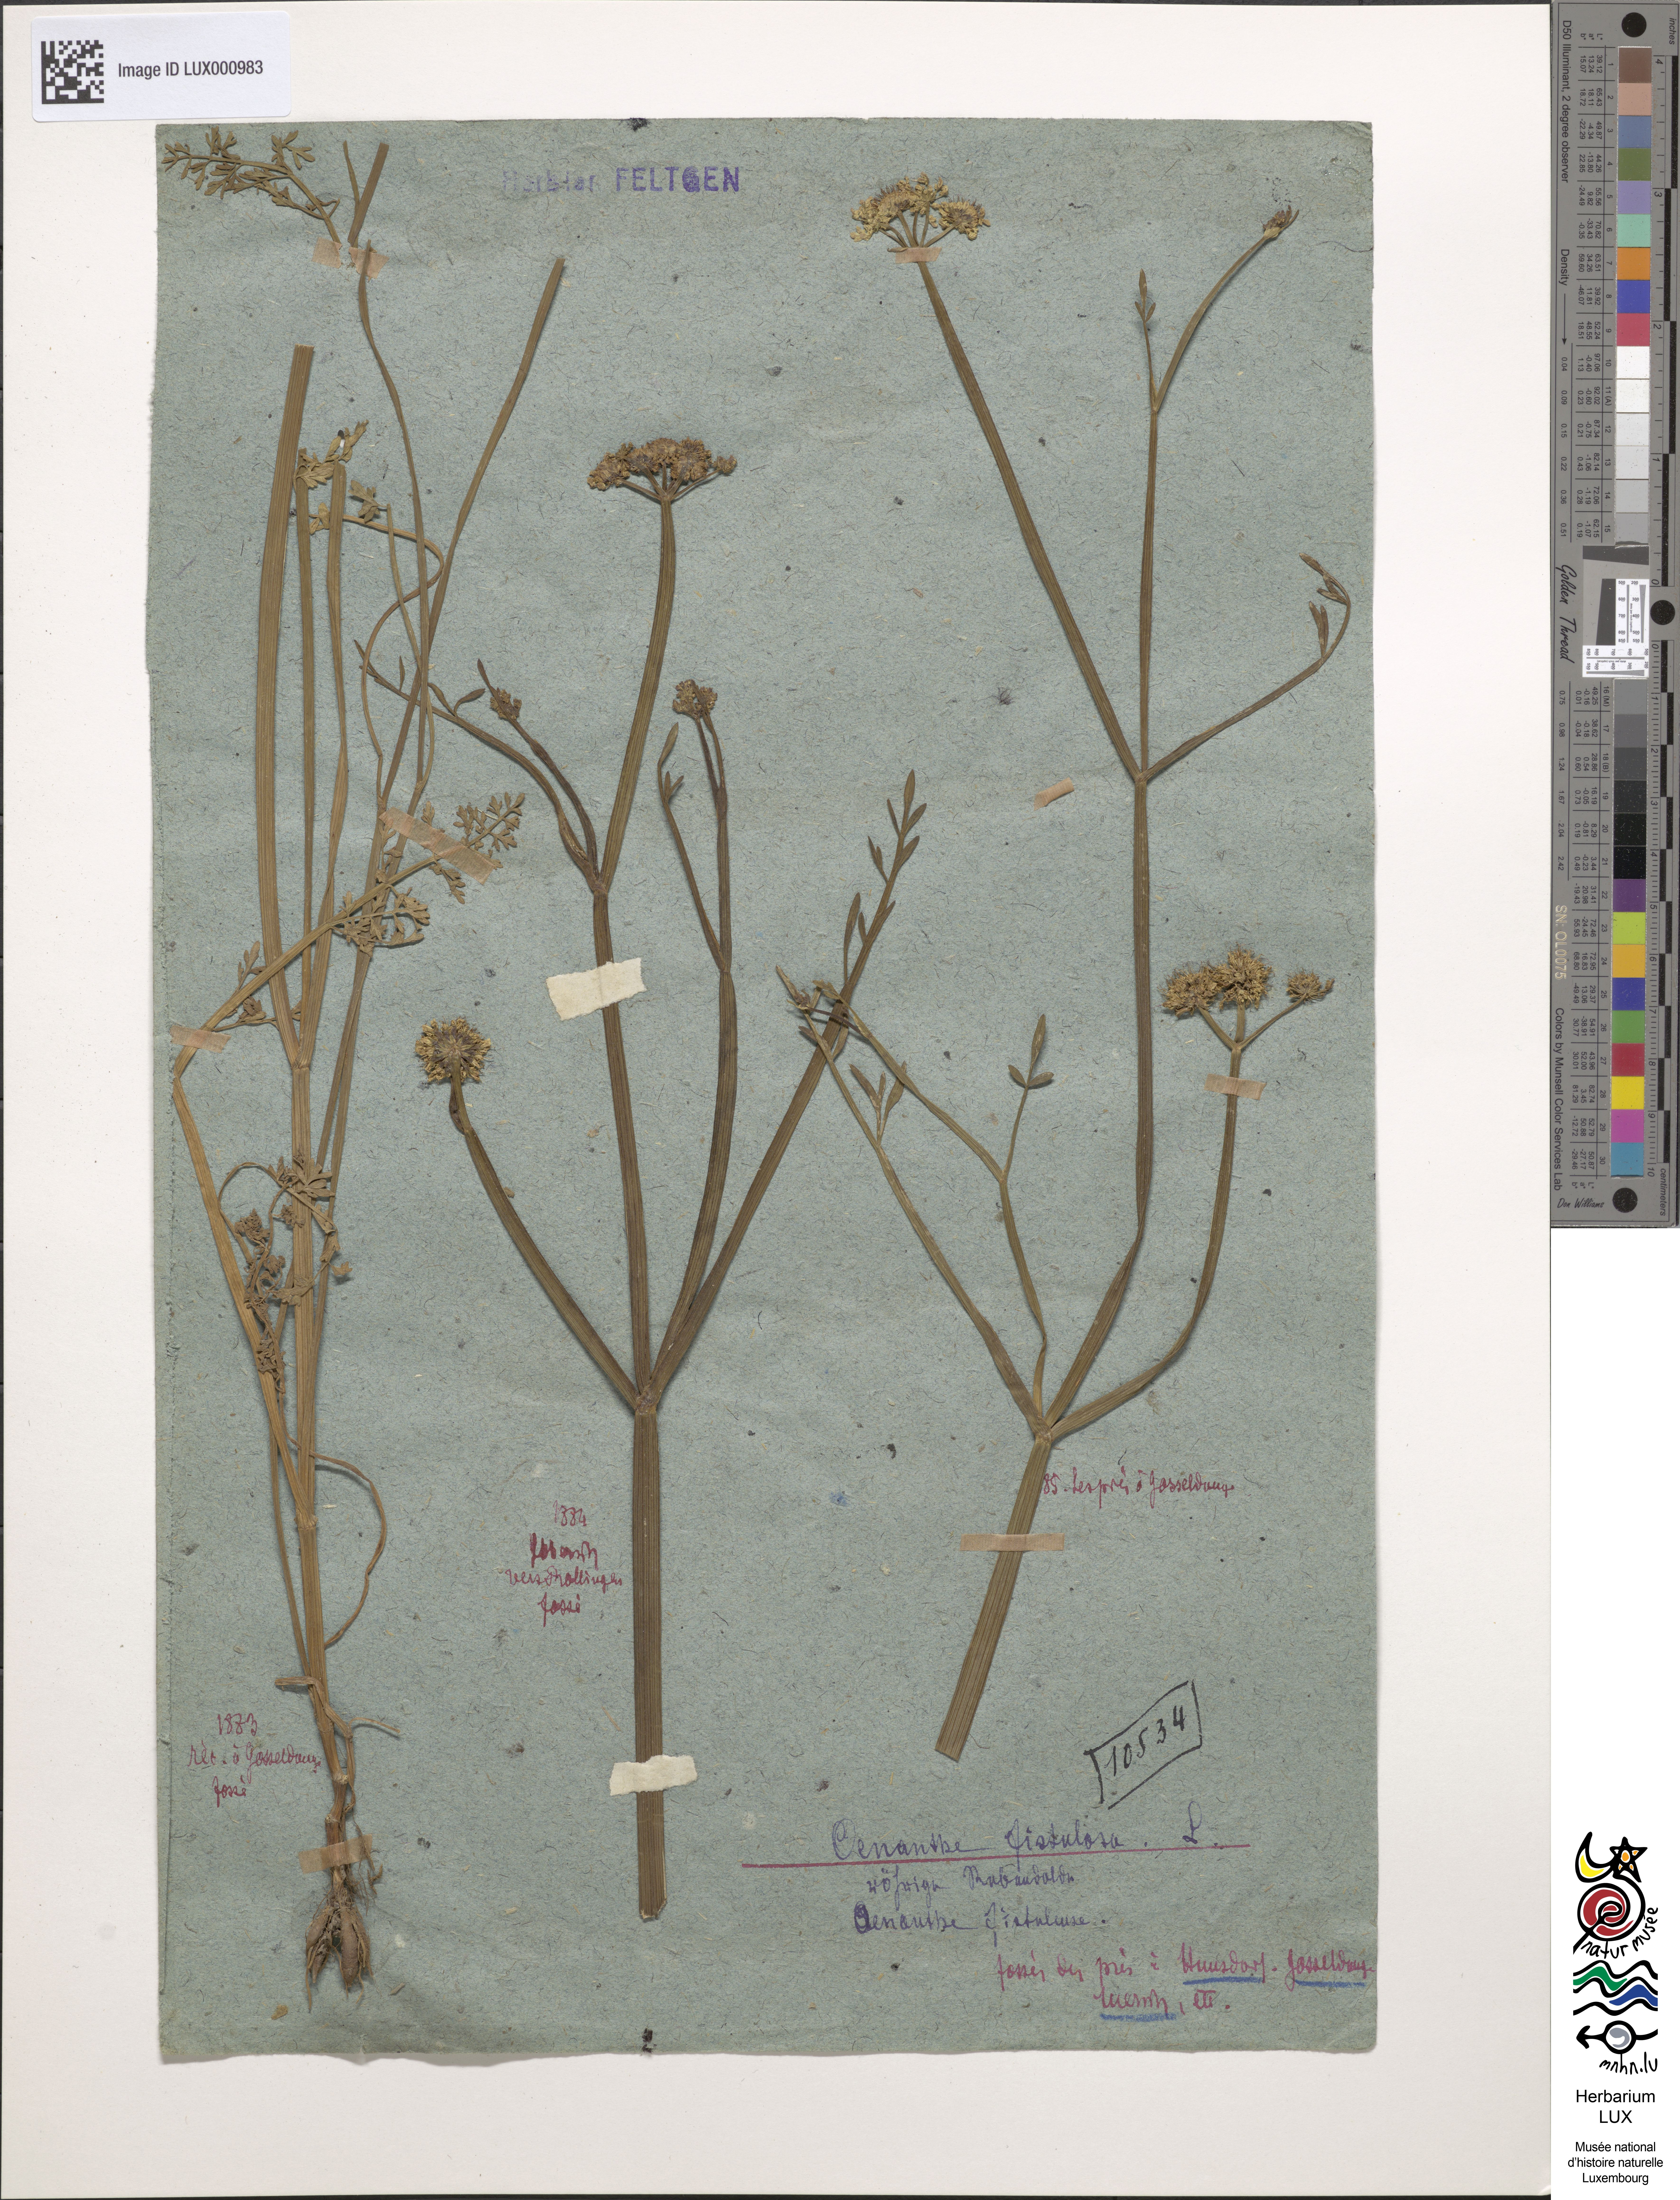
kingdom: Plantae
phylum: Tracheophyta
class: Magnoliopsida
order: Apiales
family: Apiaceae
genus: Oenanthe
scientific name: Oenanthe fistulosa
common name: Tubular water-dropwort
